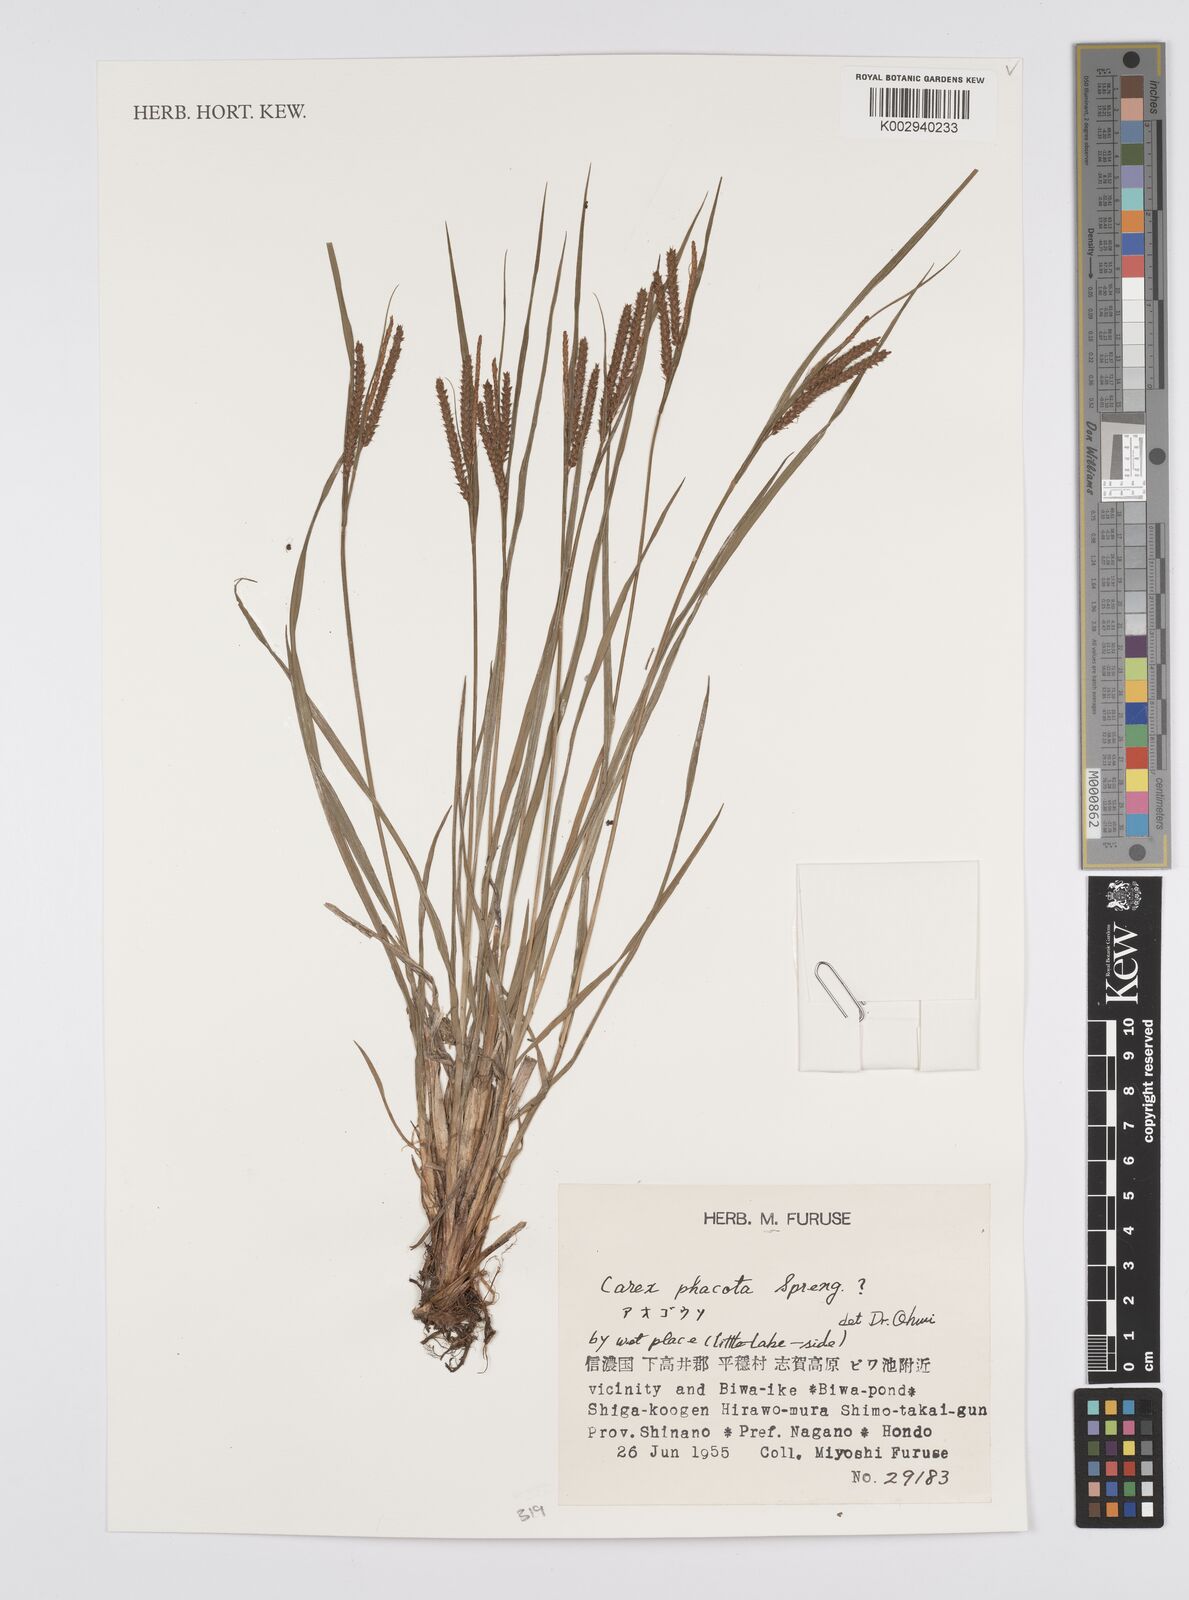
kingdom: Plantae
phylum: Tracheophyta
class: Liliopsida
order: Poales
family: Cyperaceae
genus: Carex
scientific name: Carex phacota
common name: Lakeshore sedge
